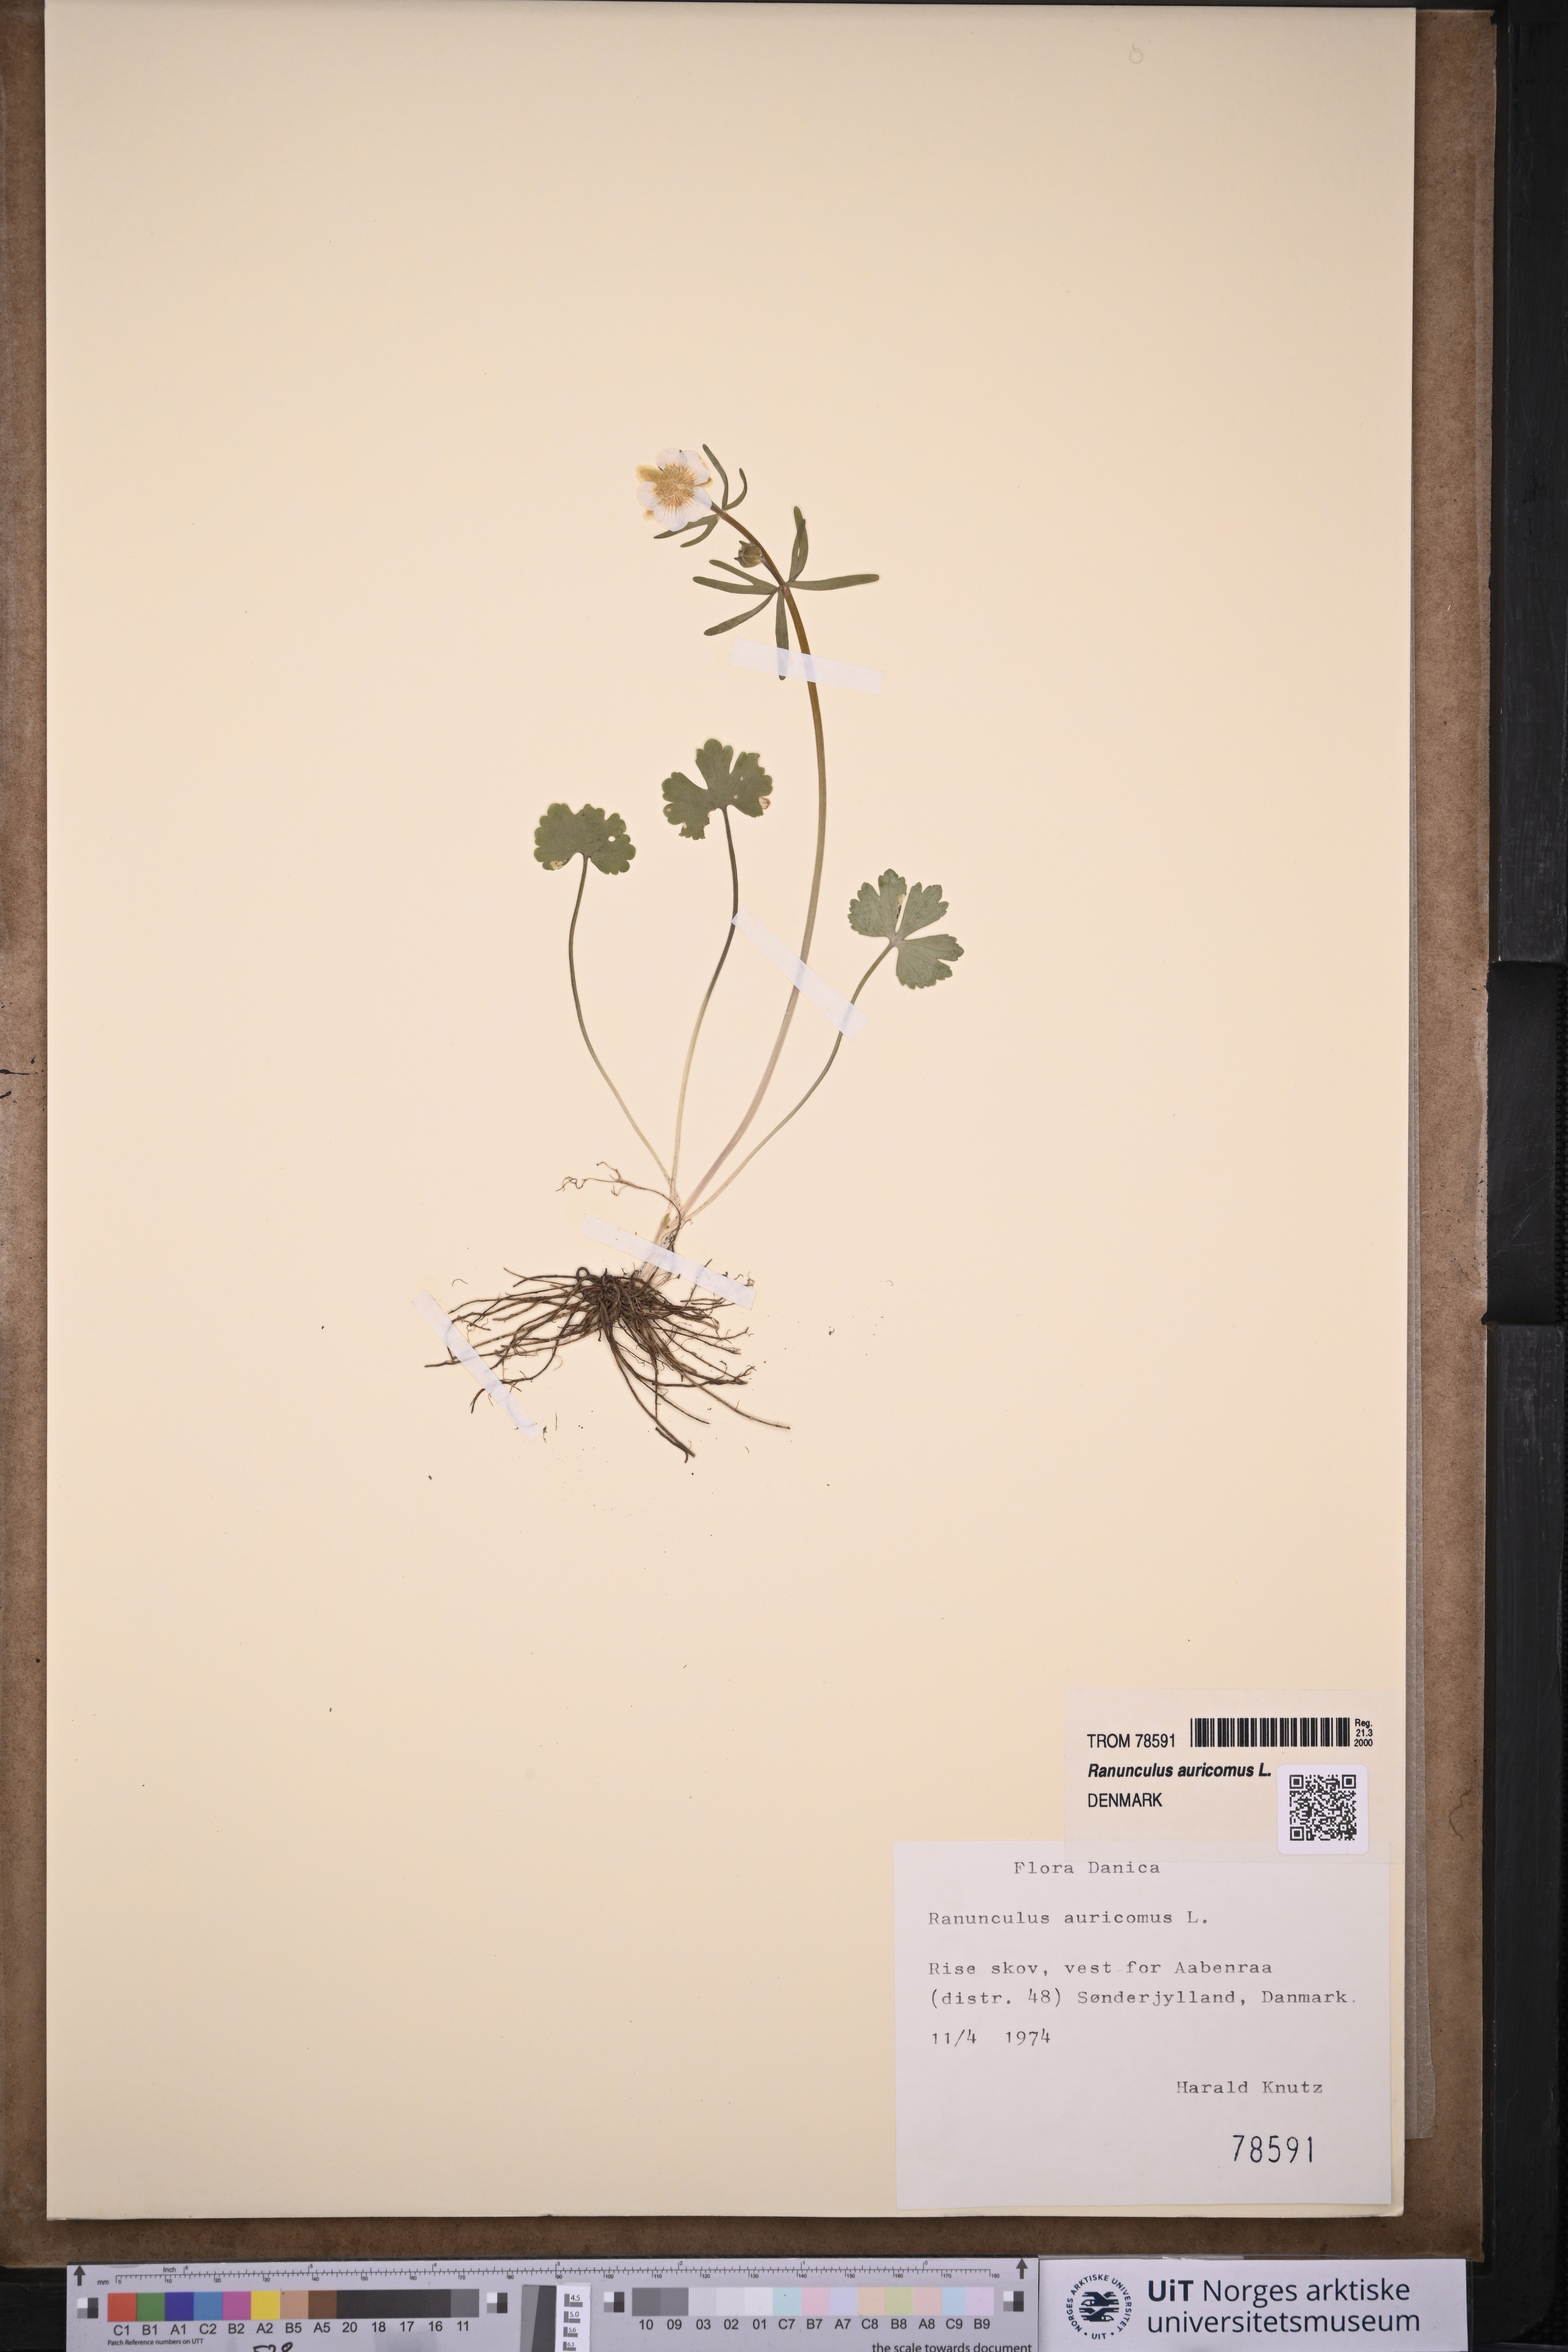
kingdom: Plantae
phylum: Tracheophyta
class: Magnoliopsida
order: Ranunculales
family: Ranunculaceae
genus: Ranunculus
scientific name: Ranunculus auricomus
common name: Goldilocks buttercup
